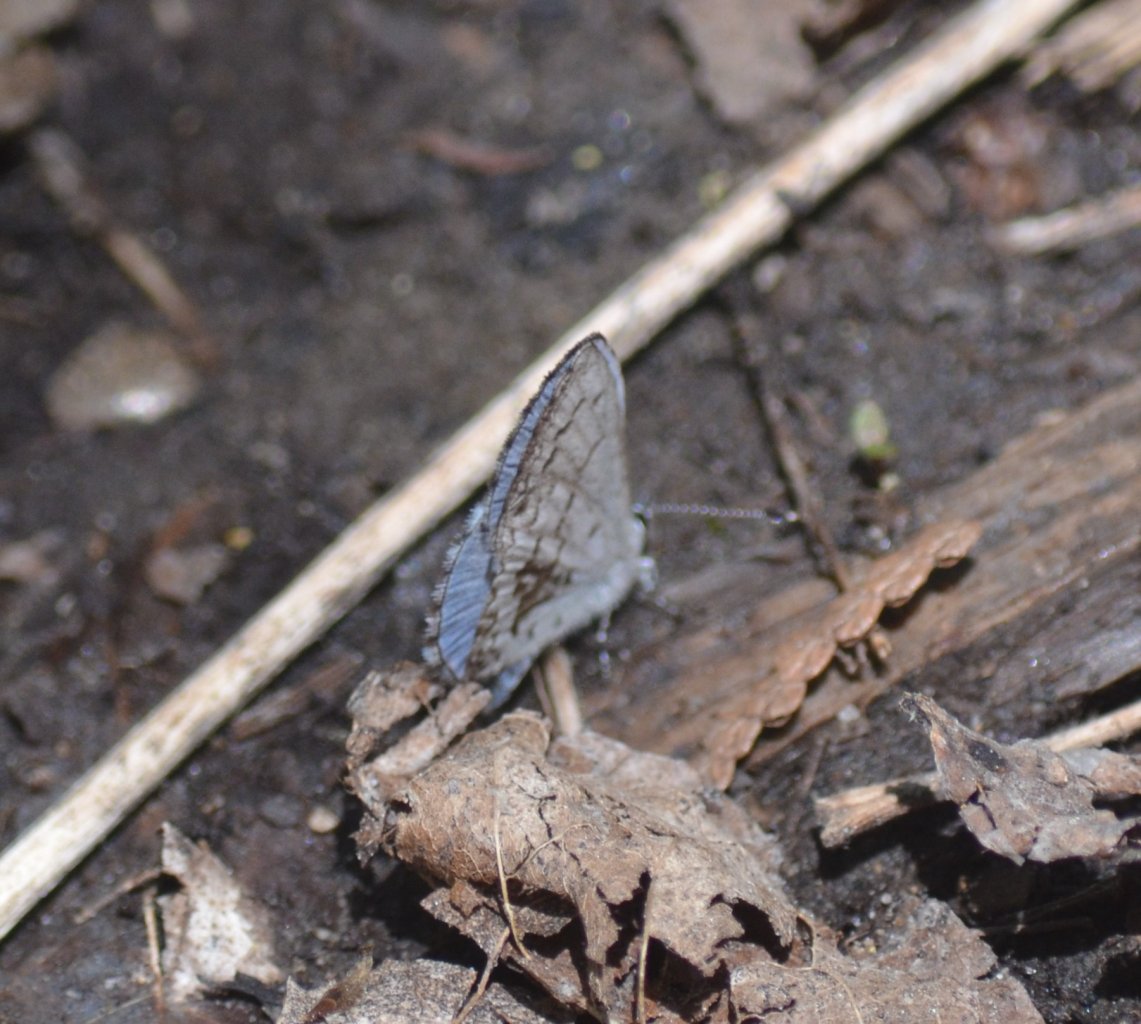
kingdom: Animalia
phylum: Arthropoda
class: Insecta
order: Lepidoptera
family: Lycaenidae
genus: Celastrina
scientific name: Celastrina lucia
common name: Northern Spring Azure
